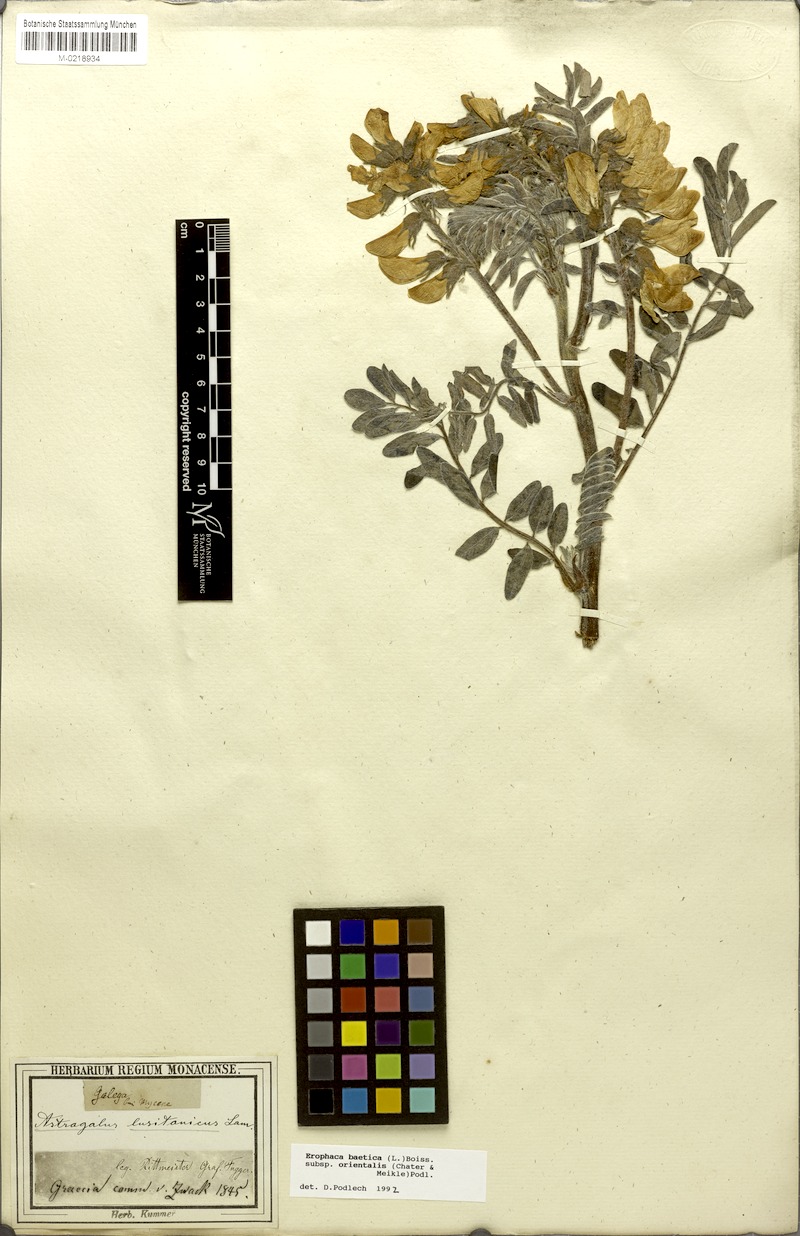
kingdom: Plantae
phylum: Tracheophyta
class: Magnoliopsida
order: Fabales
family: Fabaceae
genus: Erophaca
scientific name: Erophaca baetica
